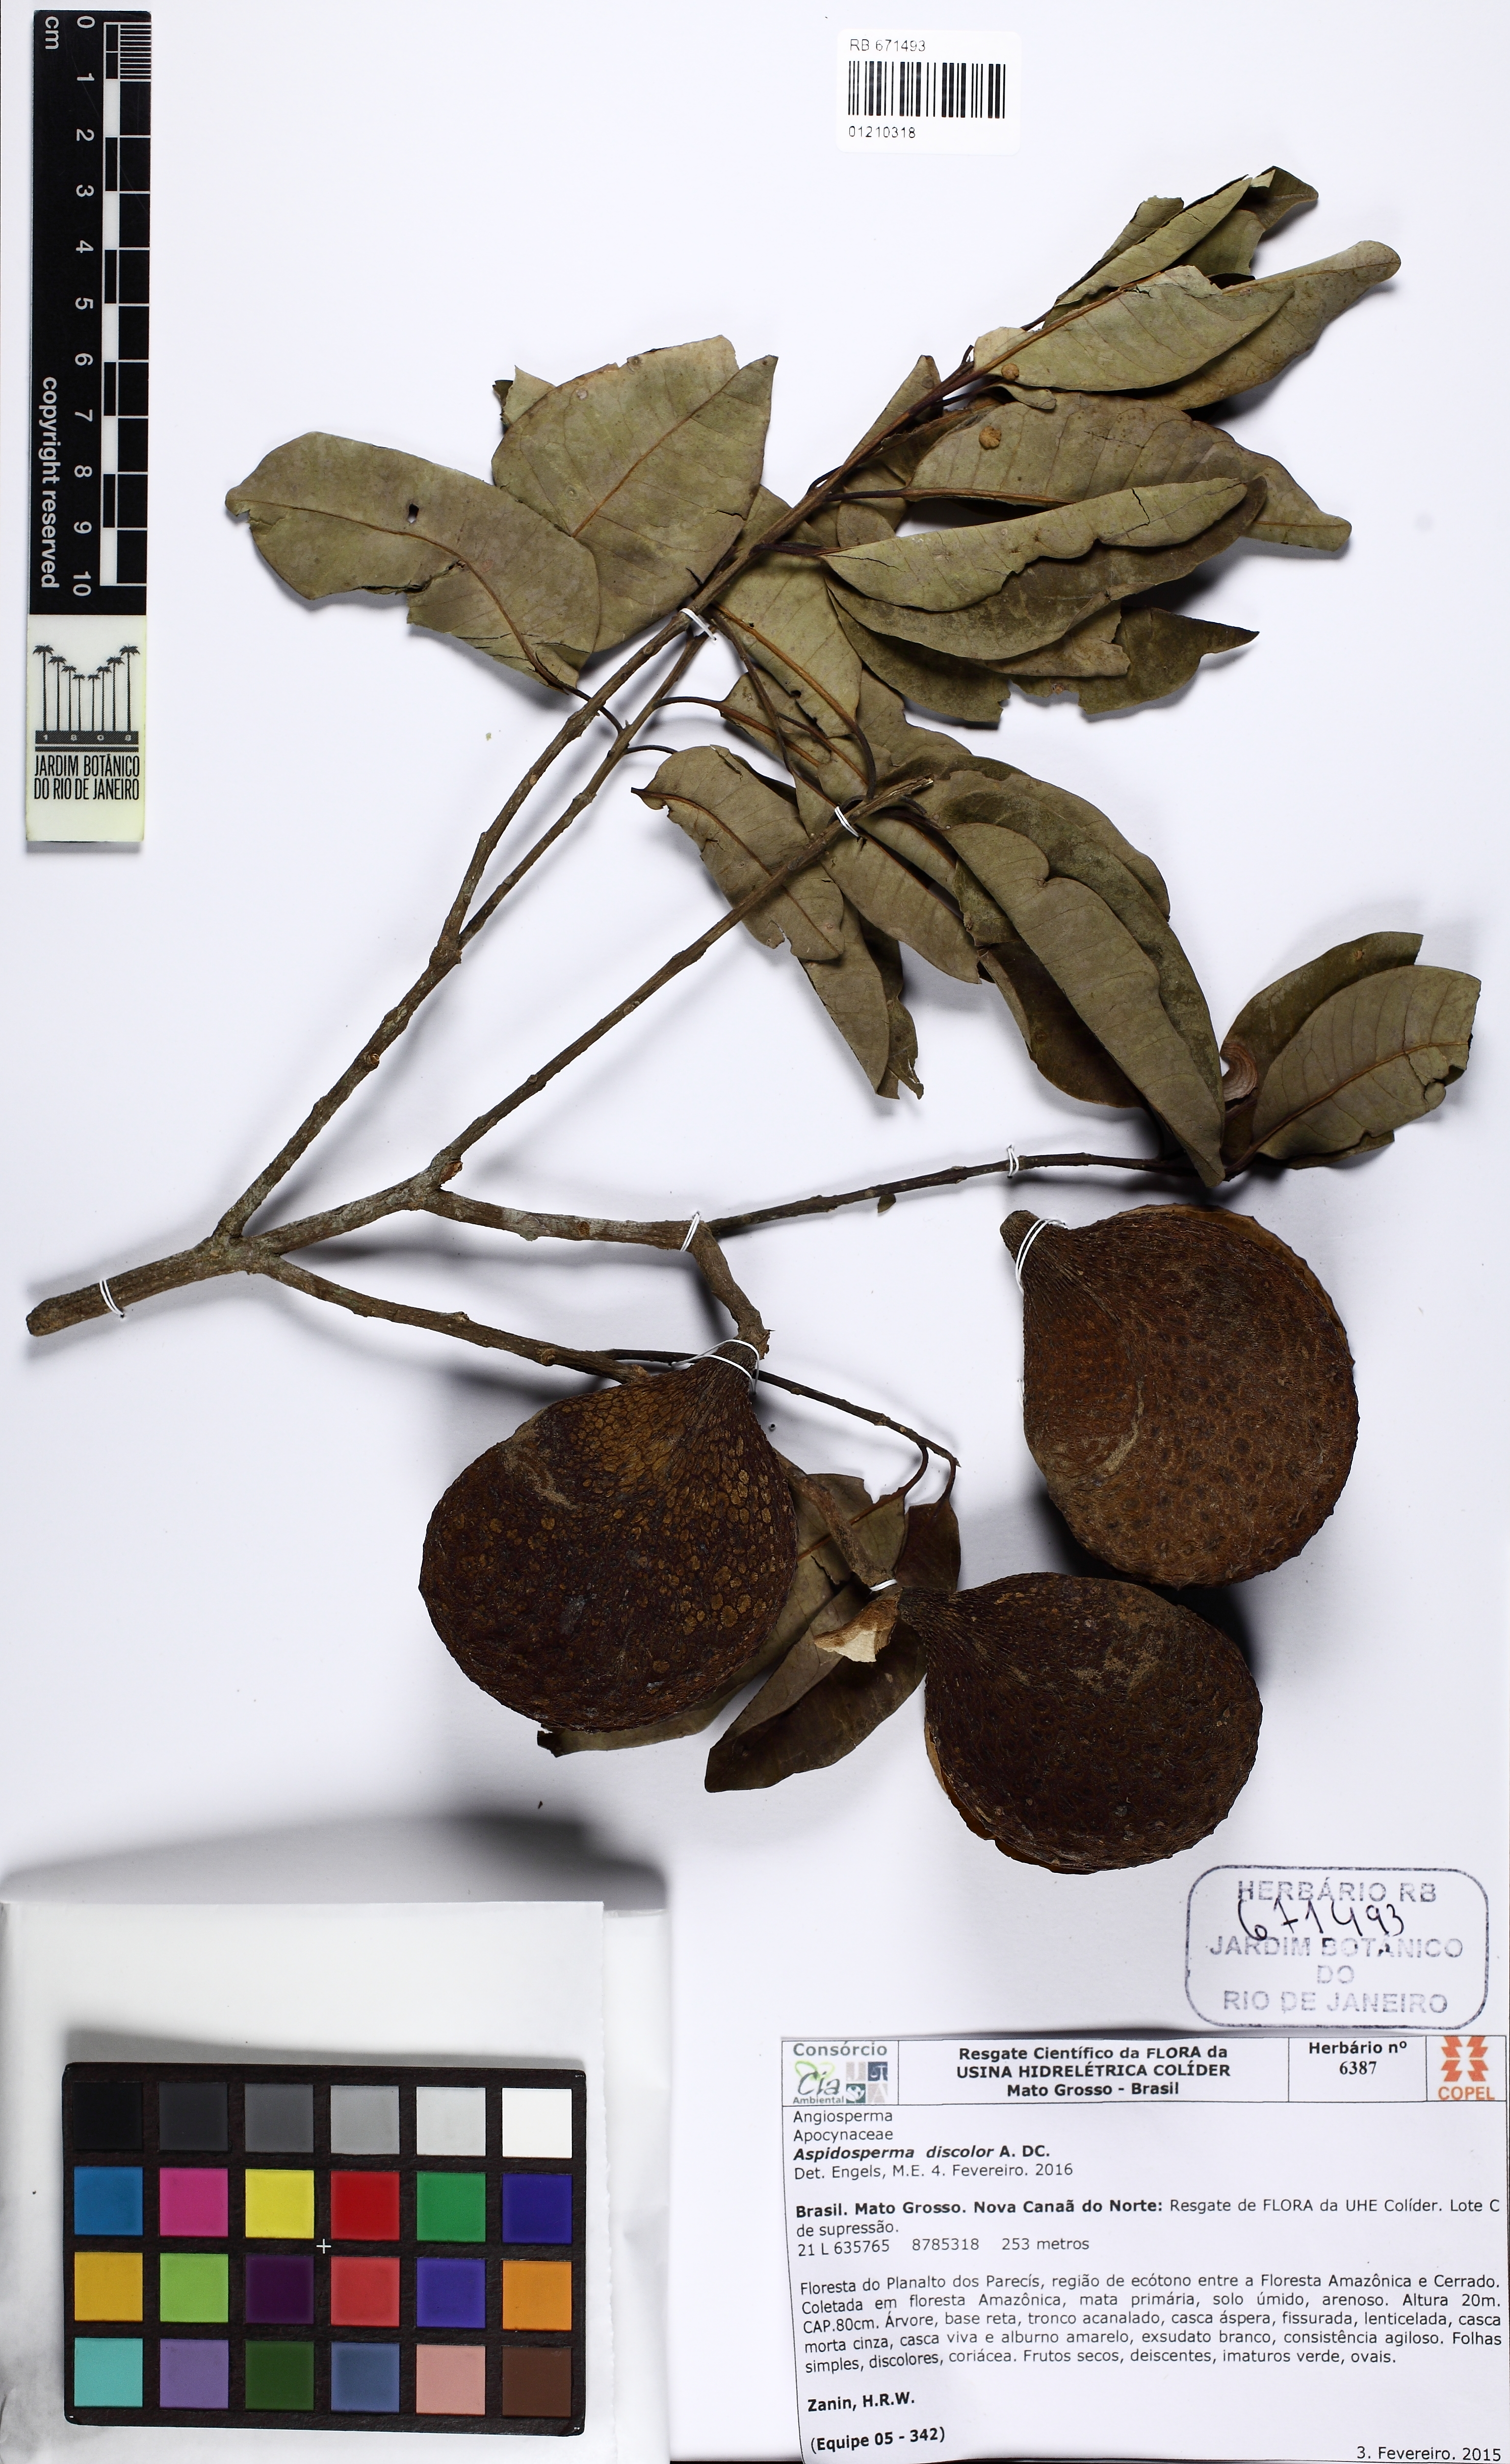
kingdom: Plantae
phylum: Tracheophyta
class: Magnoliopsida
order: Gentianales
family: Apocynaceae
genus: Aspidosperma
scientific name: Aspidosperma discolor
